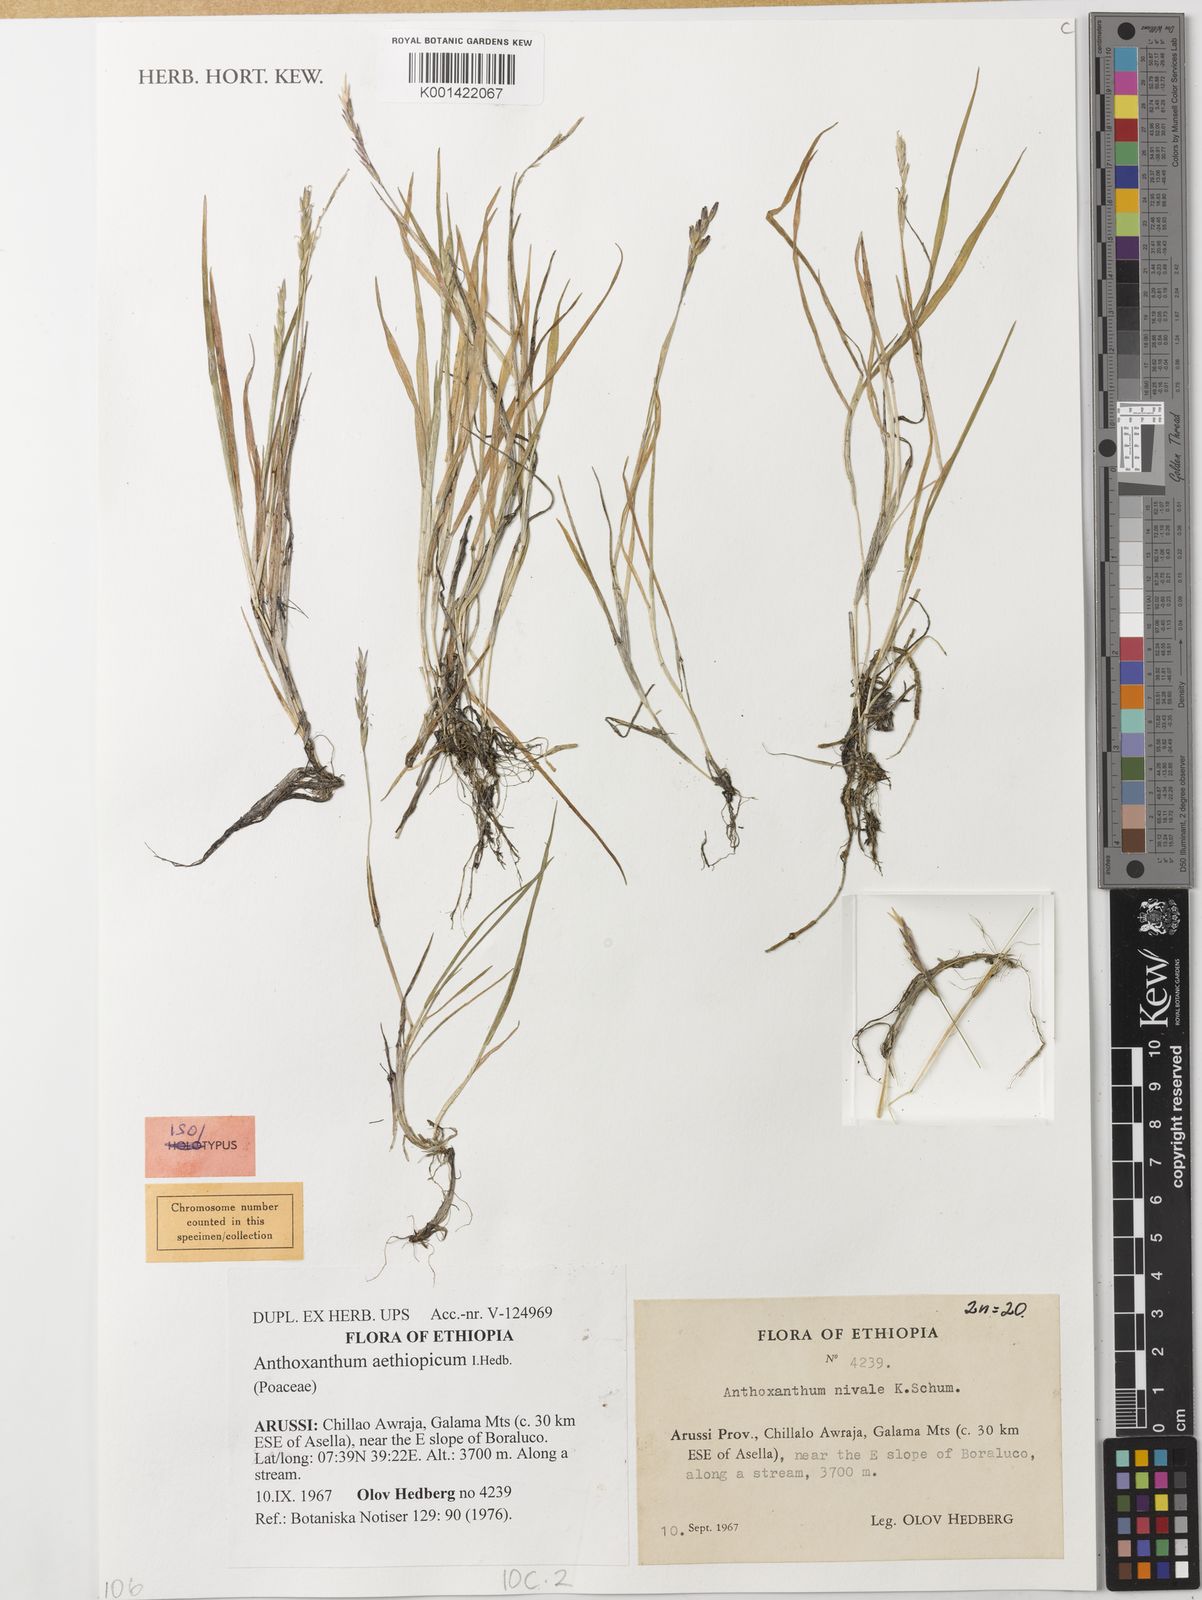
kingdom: Plantae
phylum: Tracheophyta
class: Liliopsida
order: Poales
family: Poaceae
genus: Anthoxanthum
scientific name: Anthoxanthum aethiopicum
